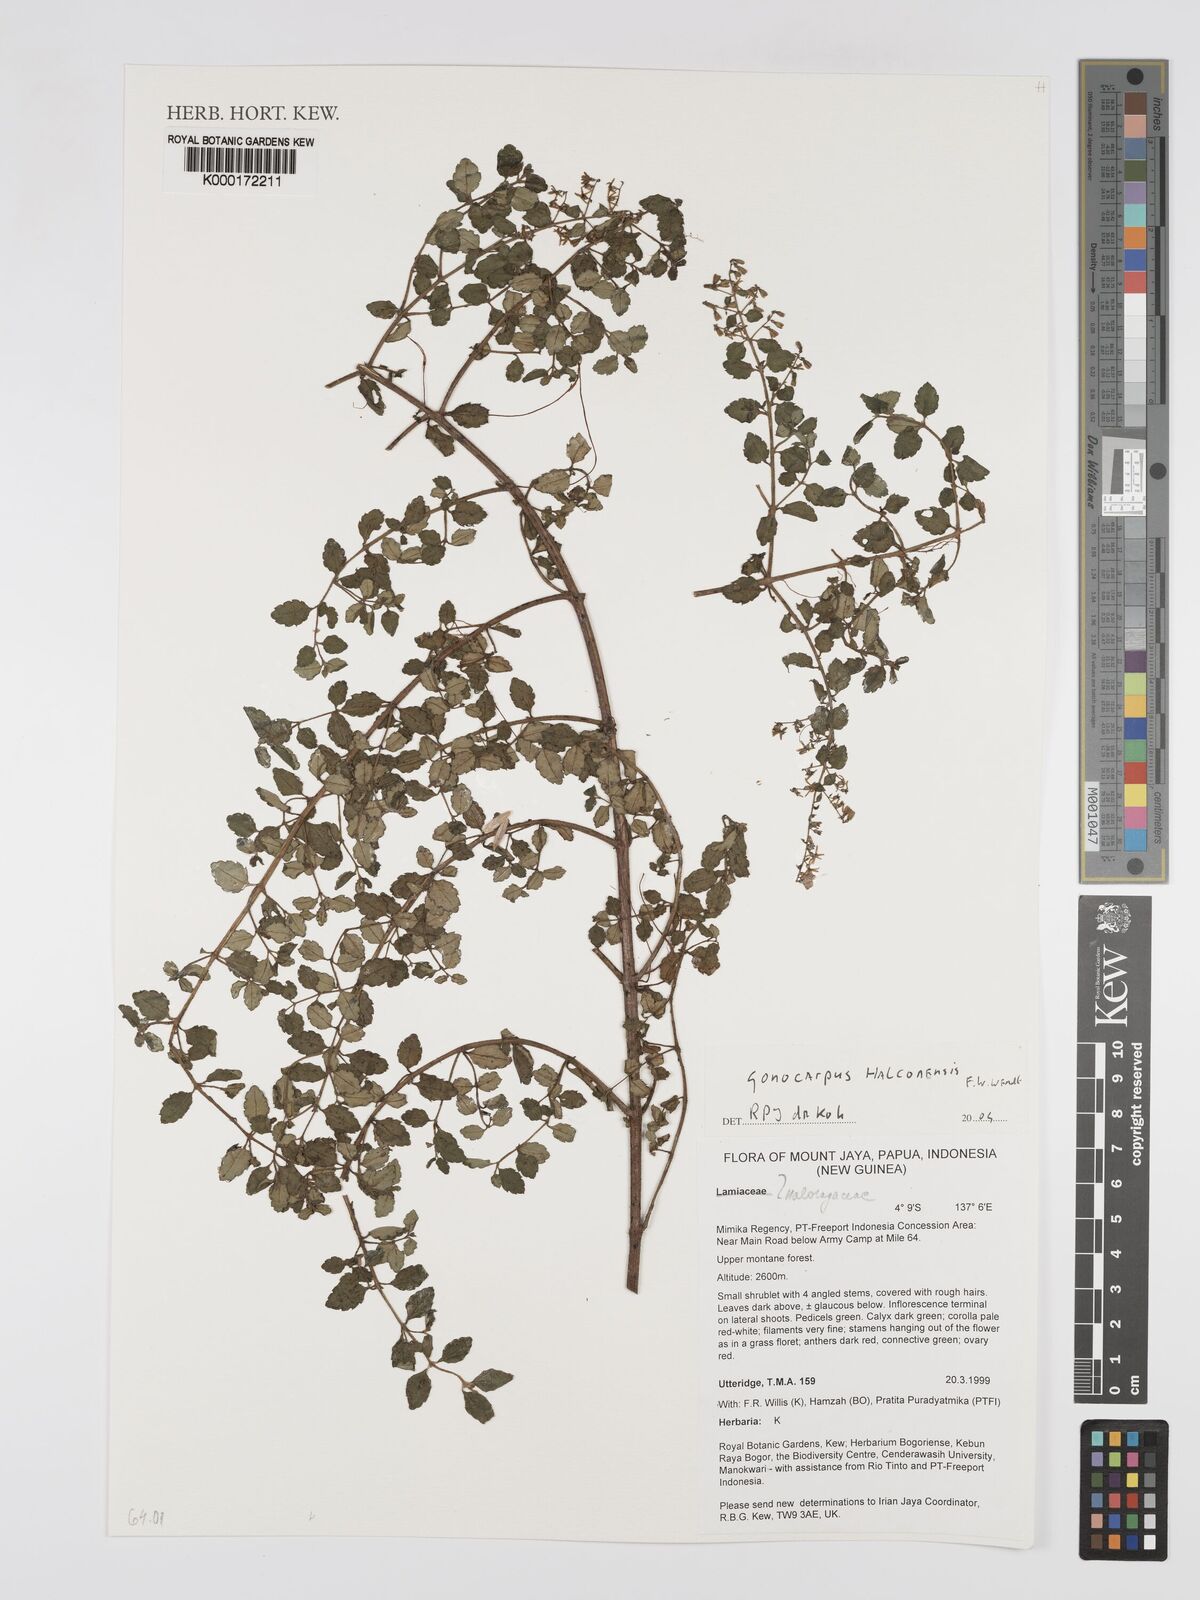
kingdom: Plantae
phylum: Tracheophyta
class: Magnoliopsida
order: Lamiales
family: Lamiaceae
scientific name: Lamiaceae
